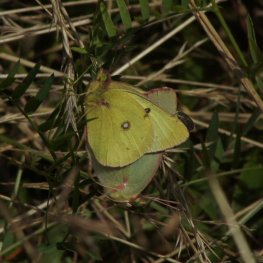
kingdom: Animalia
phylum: Arthropoda
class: Insecta
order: Lepidoptera
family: Pieridae
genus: Colias
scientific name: Colias philodice
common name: Clouded Sulphur
